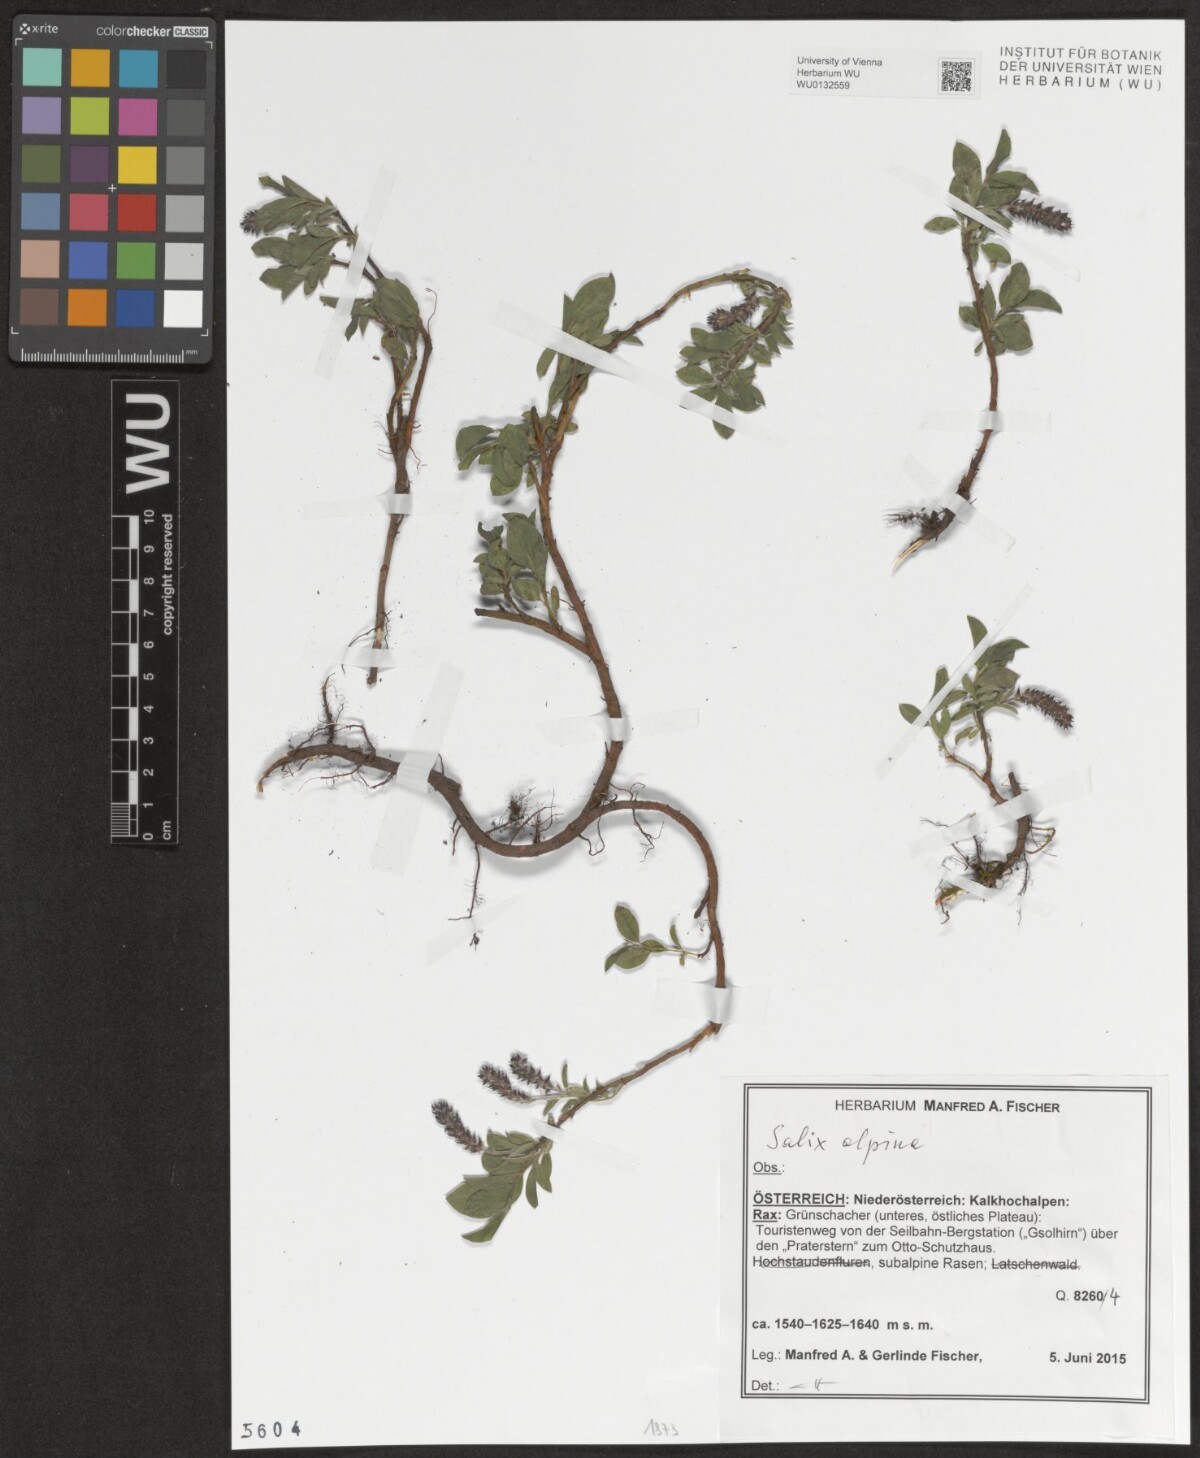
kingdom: Plantae
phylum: Tracheophyta
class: Magnoliopsida
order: Malpighiales
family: Salicaceae
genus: Salix
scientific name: Salix alpina
